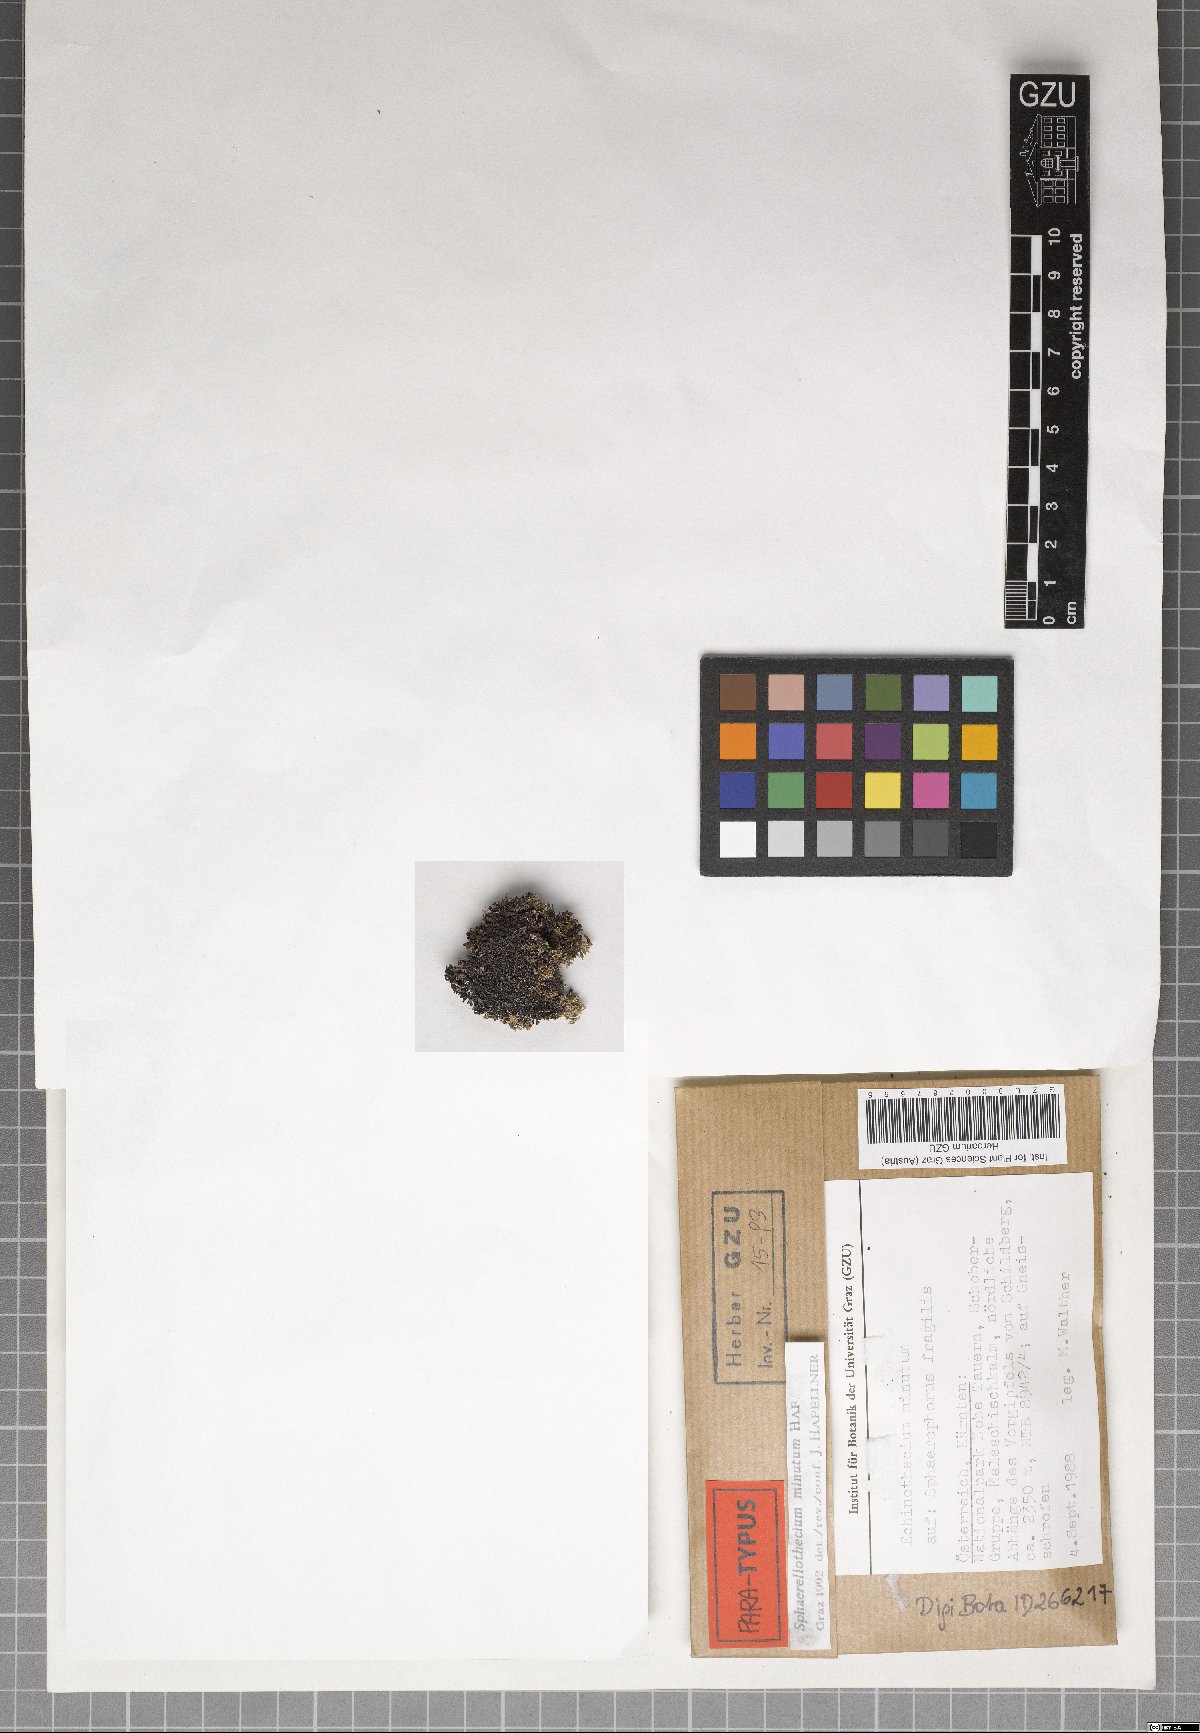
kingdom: Fungi
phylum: Ascomycota
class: Dothideomycetes
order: Mycosphaerellales
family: Mycosphaerellaceae
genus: Sphaerellothecium
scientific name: Sphaerellothecium minutum
